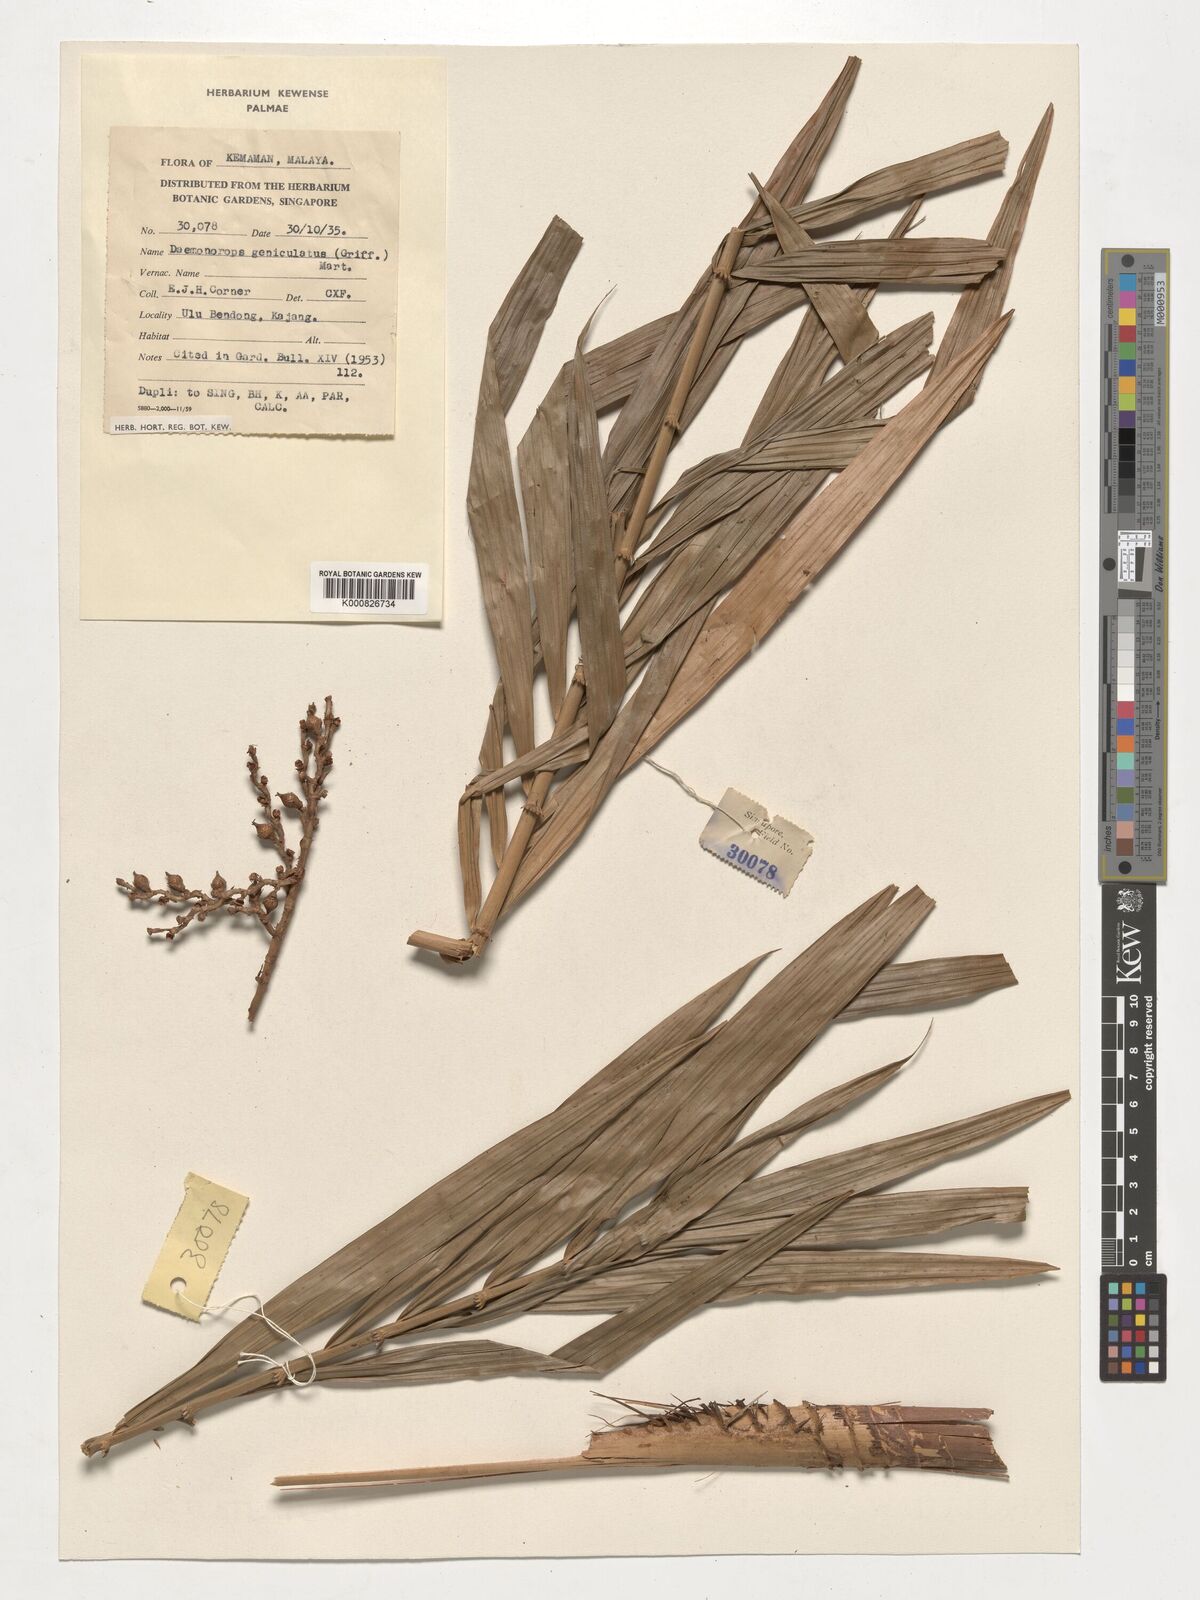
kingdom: Plantae
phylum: Tracheophyta
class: Liliopsida
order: Arecales
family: Arecaceae
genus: Calamus
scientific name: Calamus geniculatus
